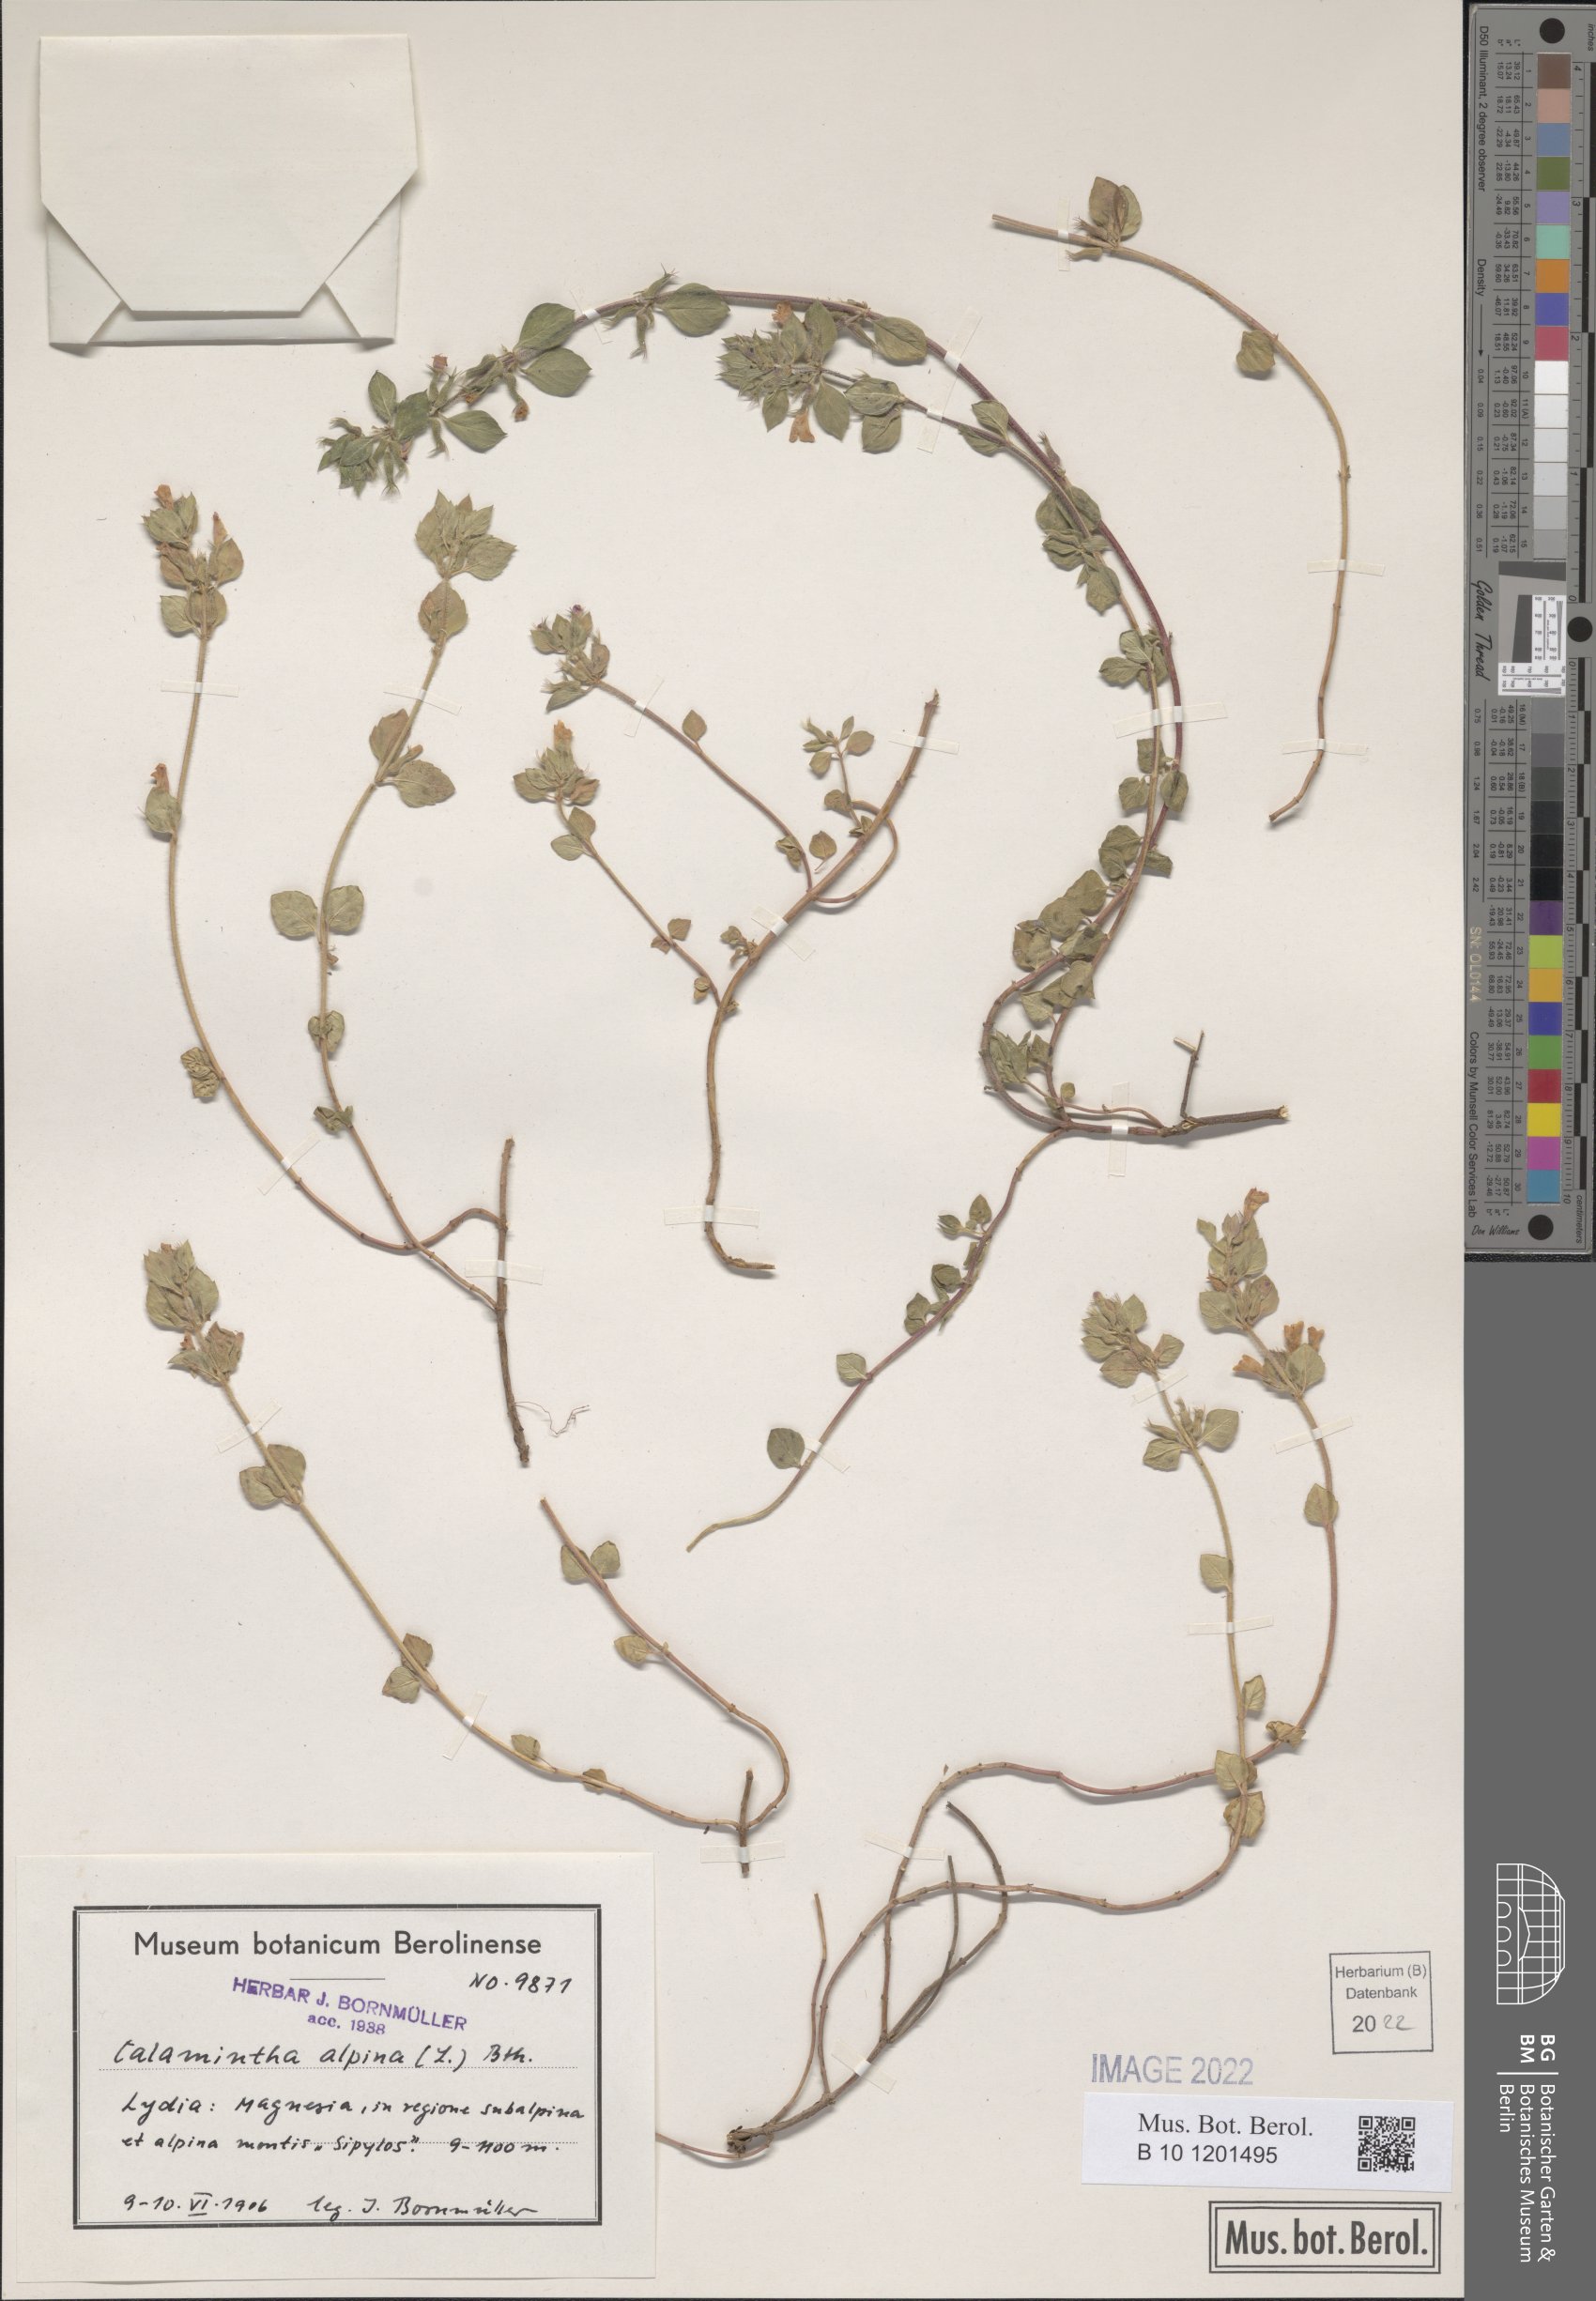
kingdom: Plantae
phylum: Tracheophyta
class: Magnoliopsida
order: Lamiales
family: Lamiaceae
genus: Clinopodium
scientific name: Clinopodium alpinum
